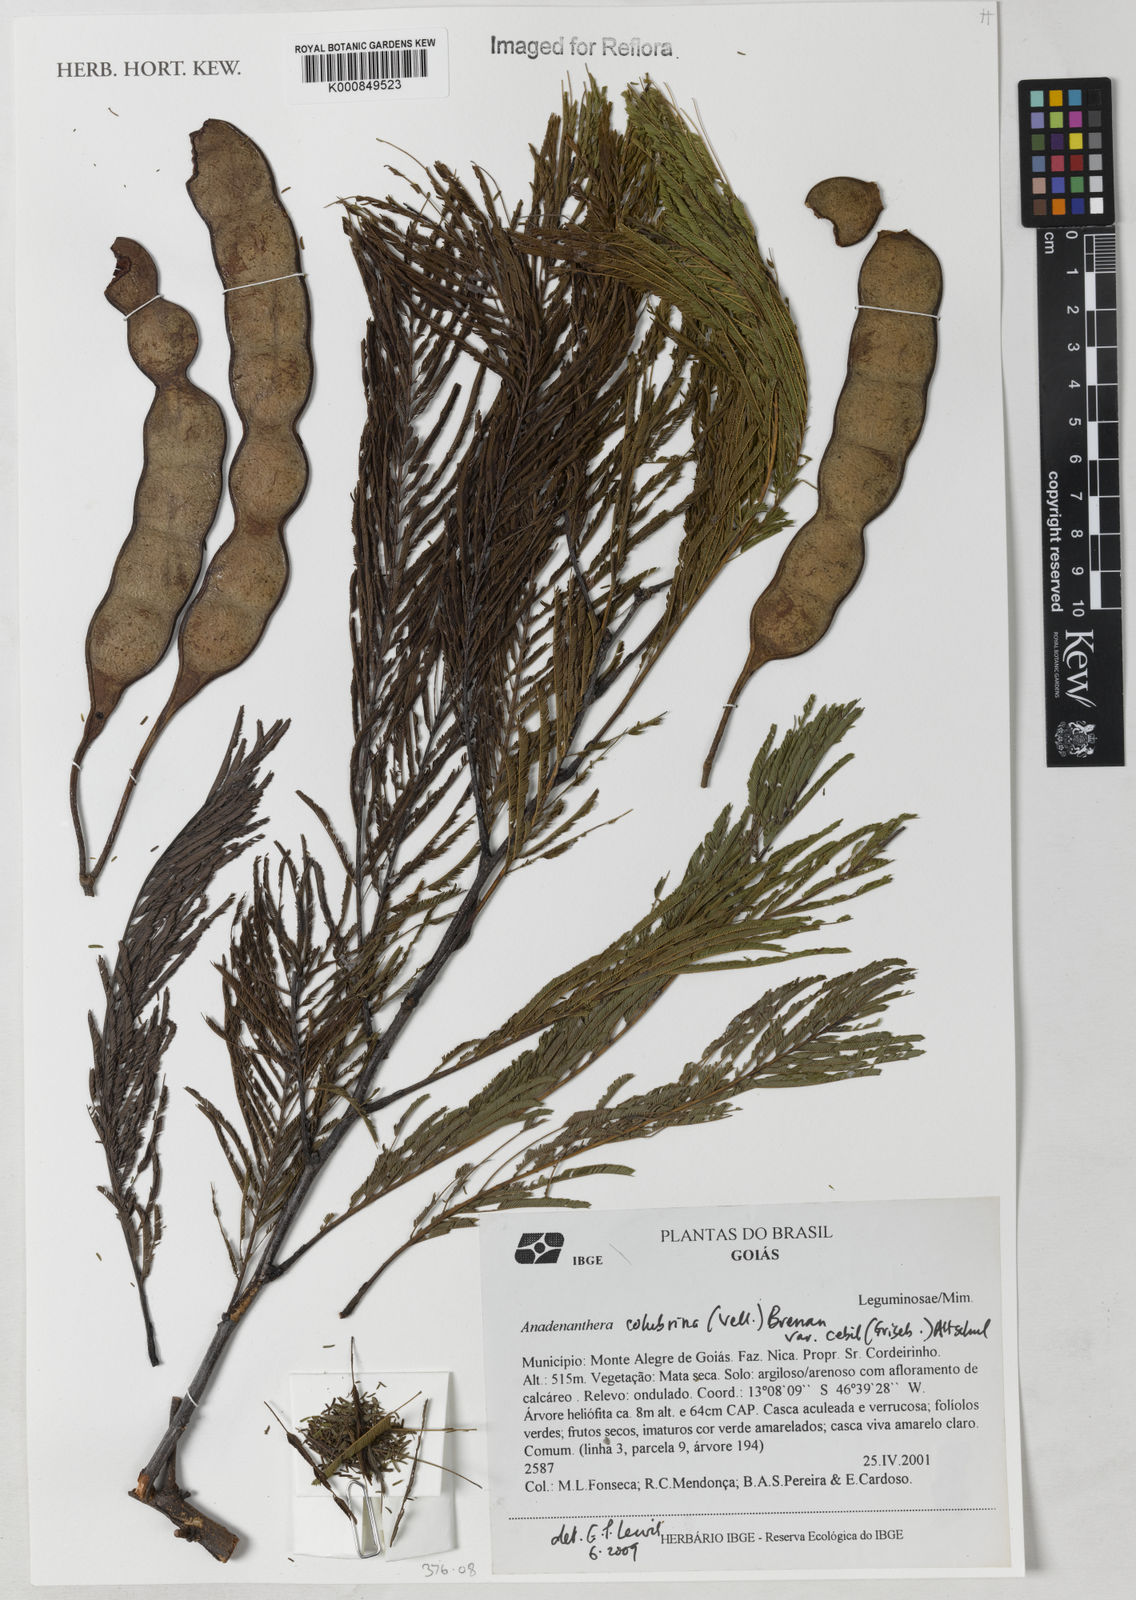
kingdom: Plantae
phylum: Tracheophyta
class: Magnoliopsida
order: Fabales
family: Fabaceae
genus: Anadenanthera
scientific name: Anadenanthera colubrina
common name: Curupay
